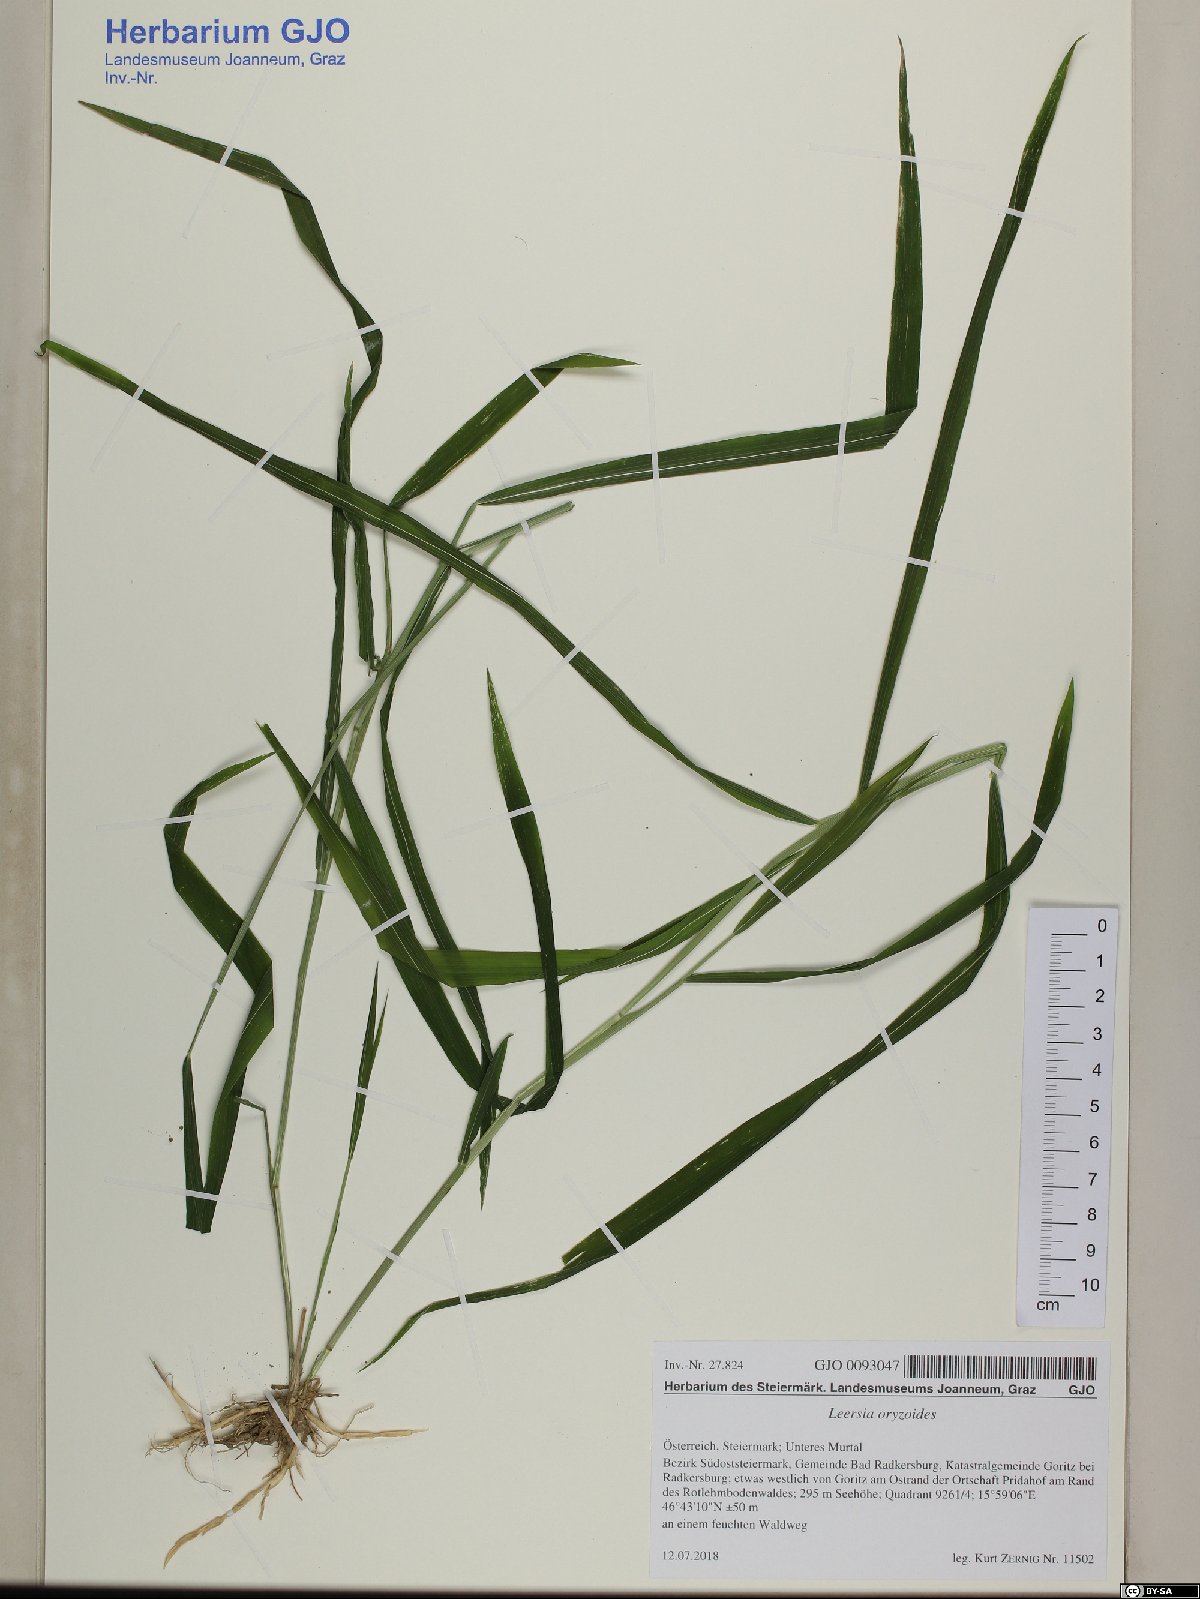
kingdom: Plantae
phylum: Tracheophyta
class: Liliopsida
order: Poales
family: Poaceae
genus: Leersia
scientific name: Leersia oryzoides
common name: Cut-grass
